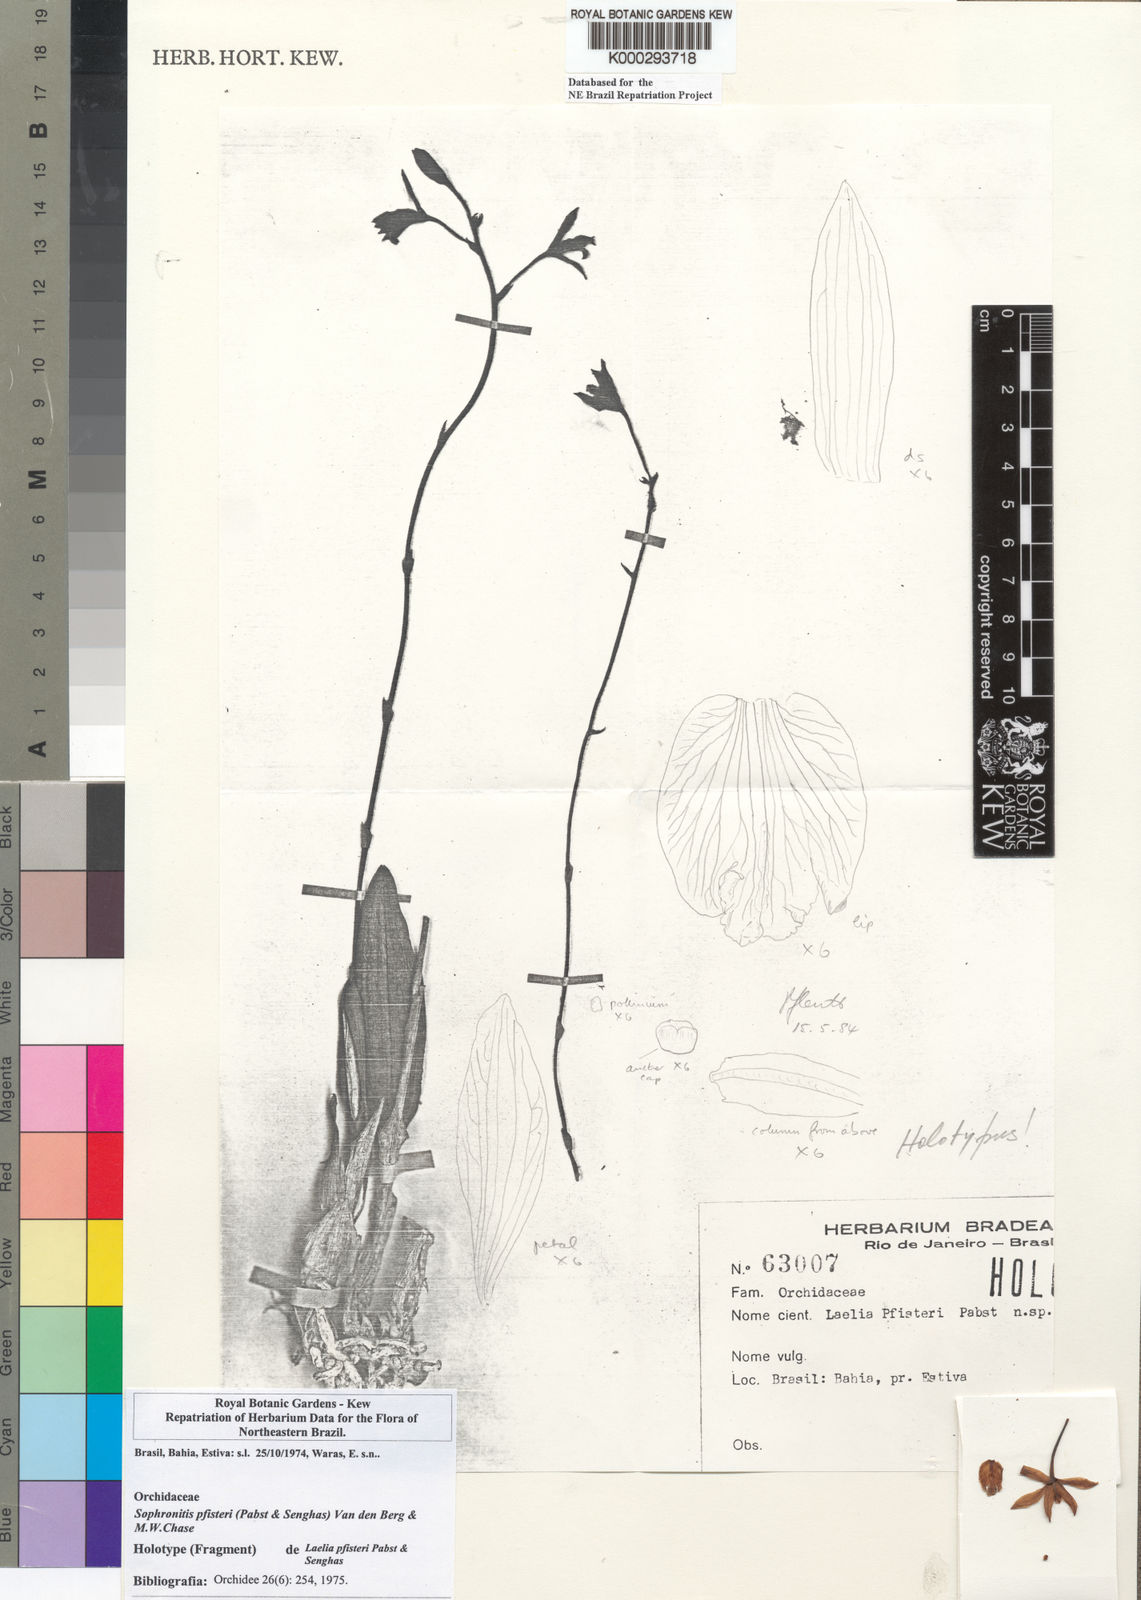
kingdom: Plantae
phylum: Tracheophyta
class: Liliopsida
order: Asparagales
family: Orchidaceae
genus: Cattleya
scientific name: Cattleya pfisteri
